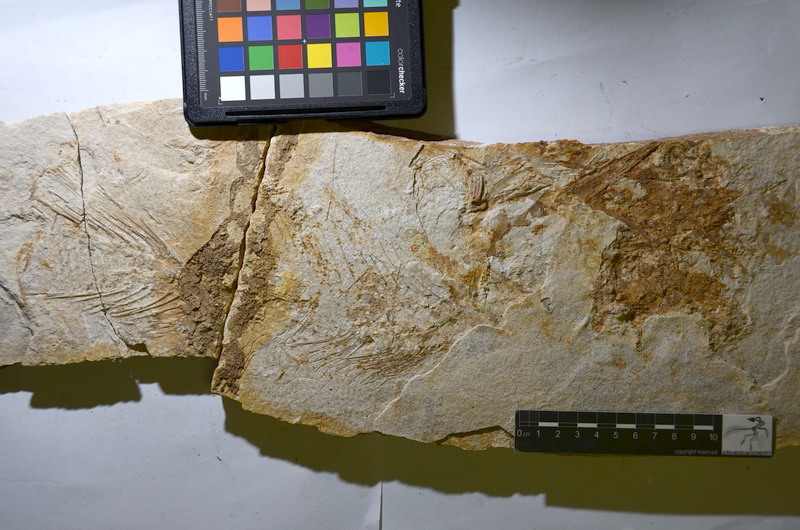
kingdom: Animalia
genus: Piscis
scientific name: Piscis
